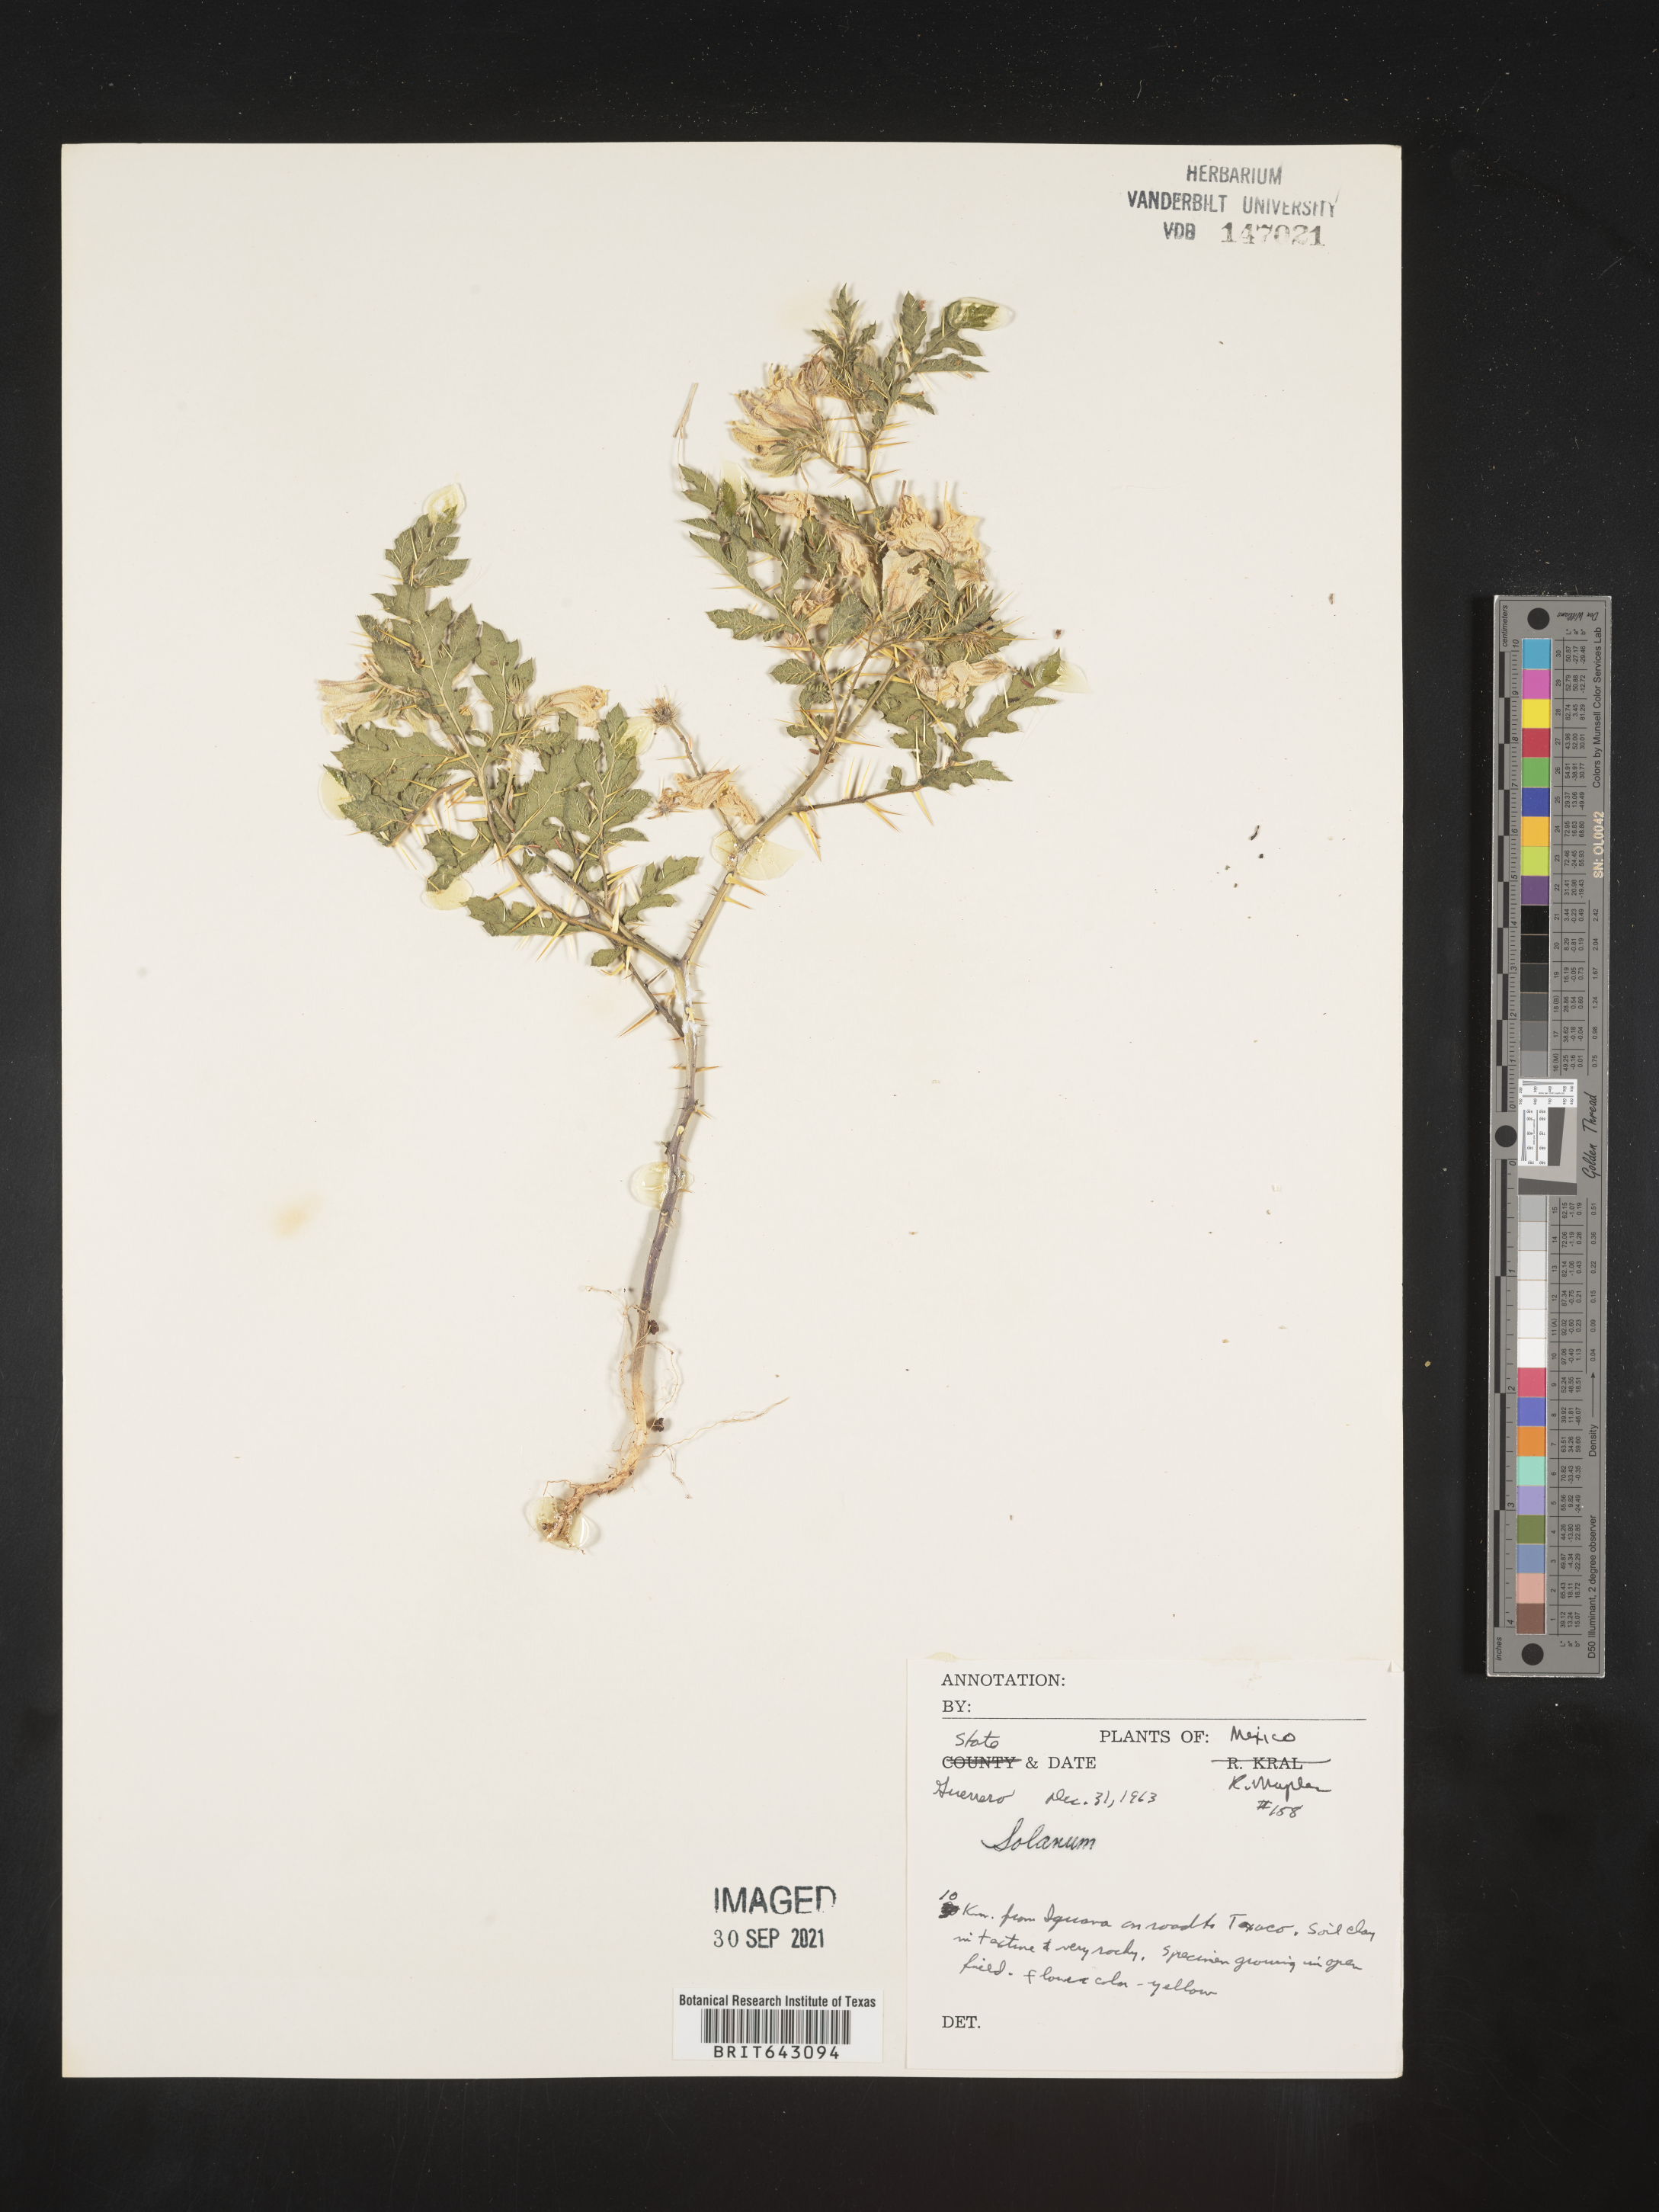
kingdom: Plantae
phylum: Tracheophyta
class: Magnoliopsida
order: Solanales
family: Solanaceae
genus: Solanum
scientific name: Solanum
